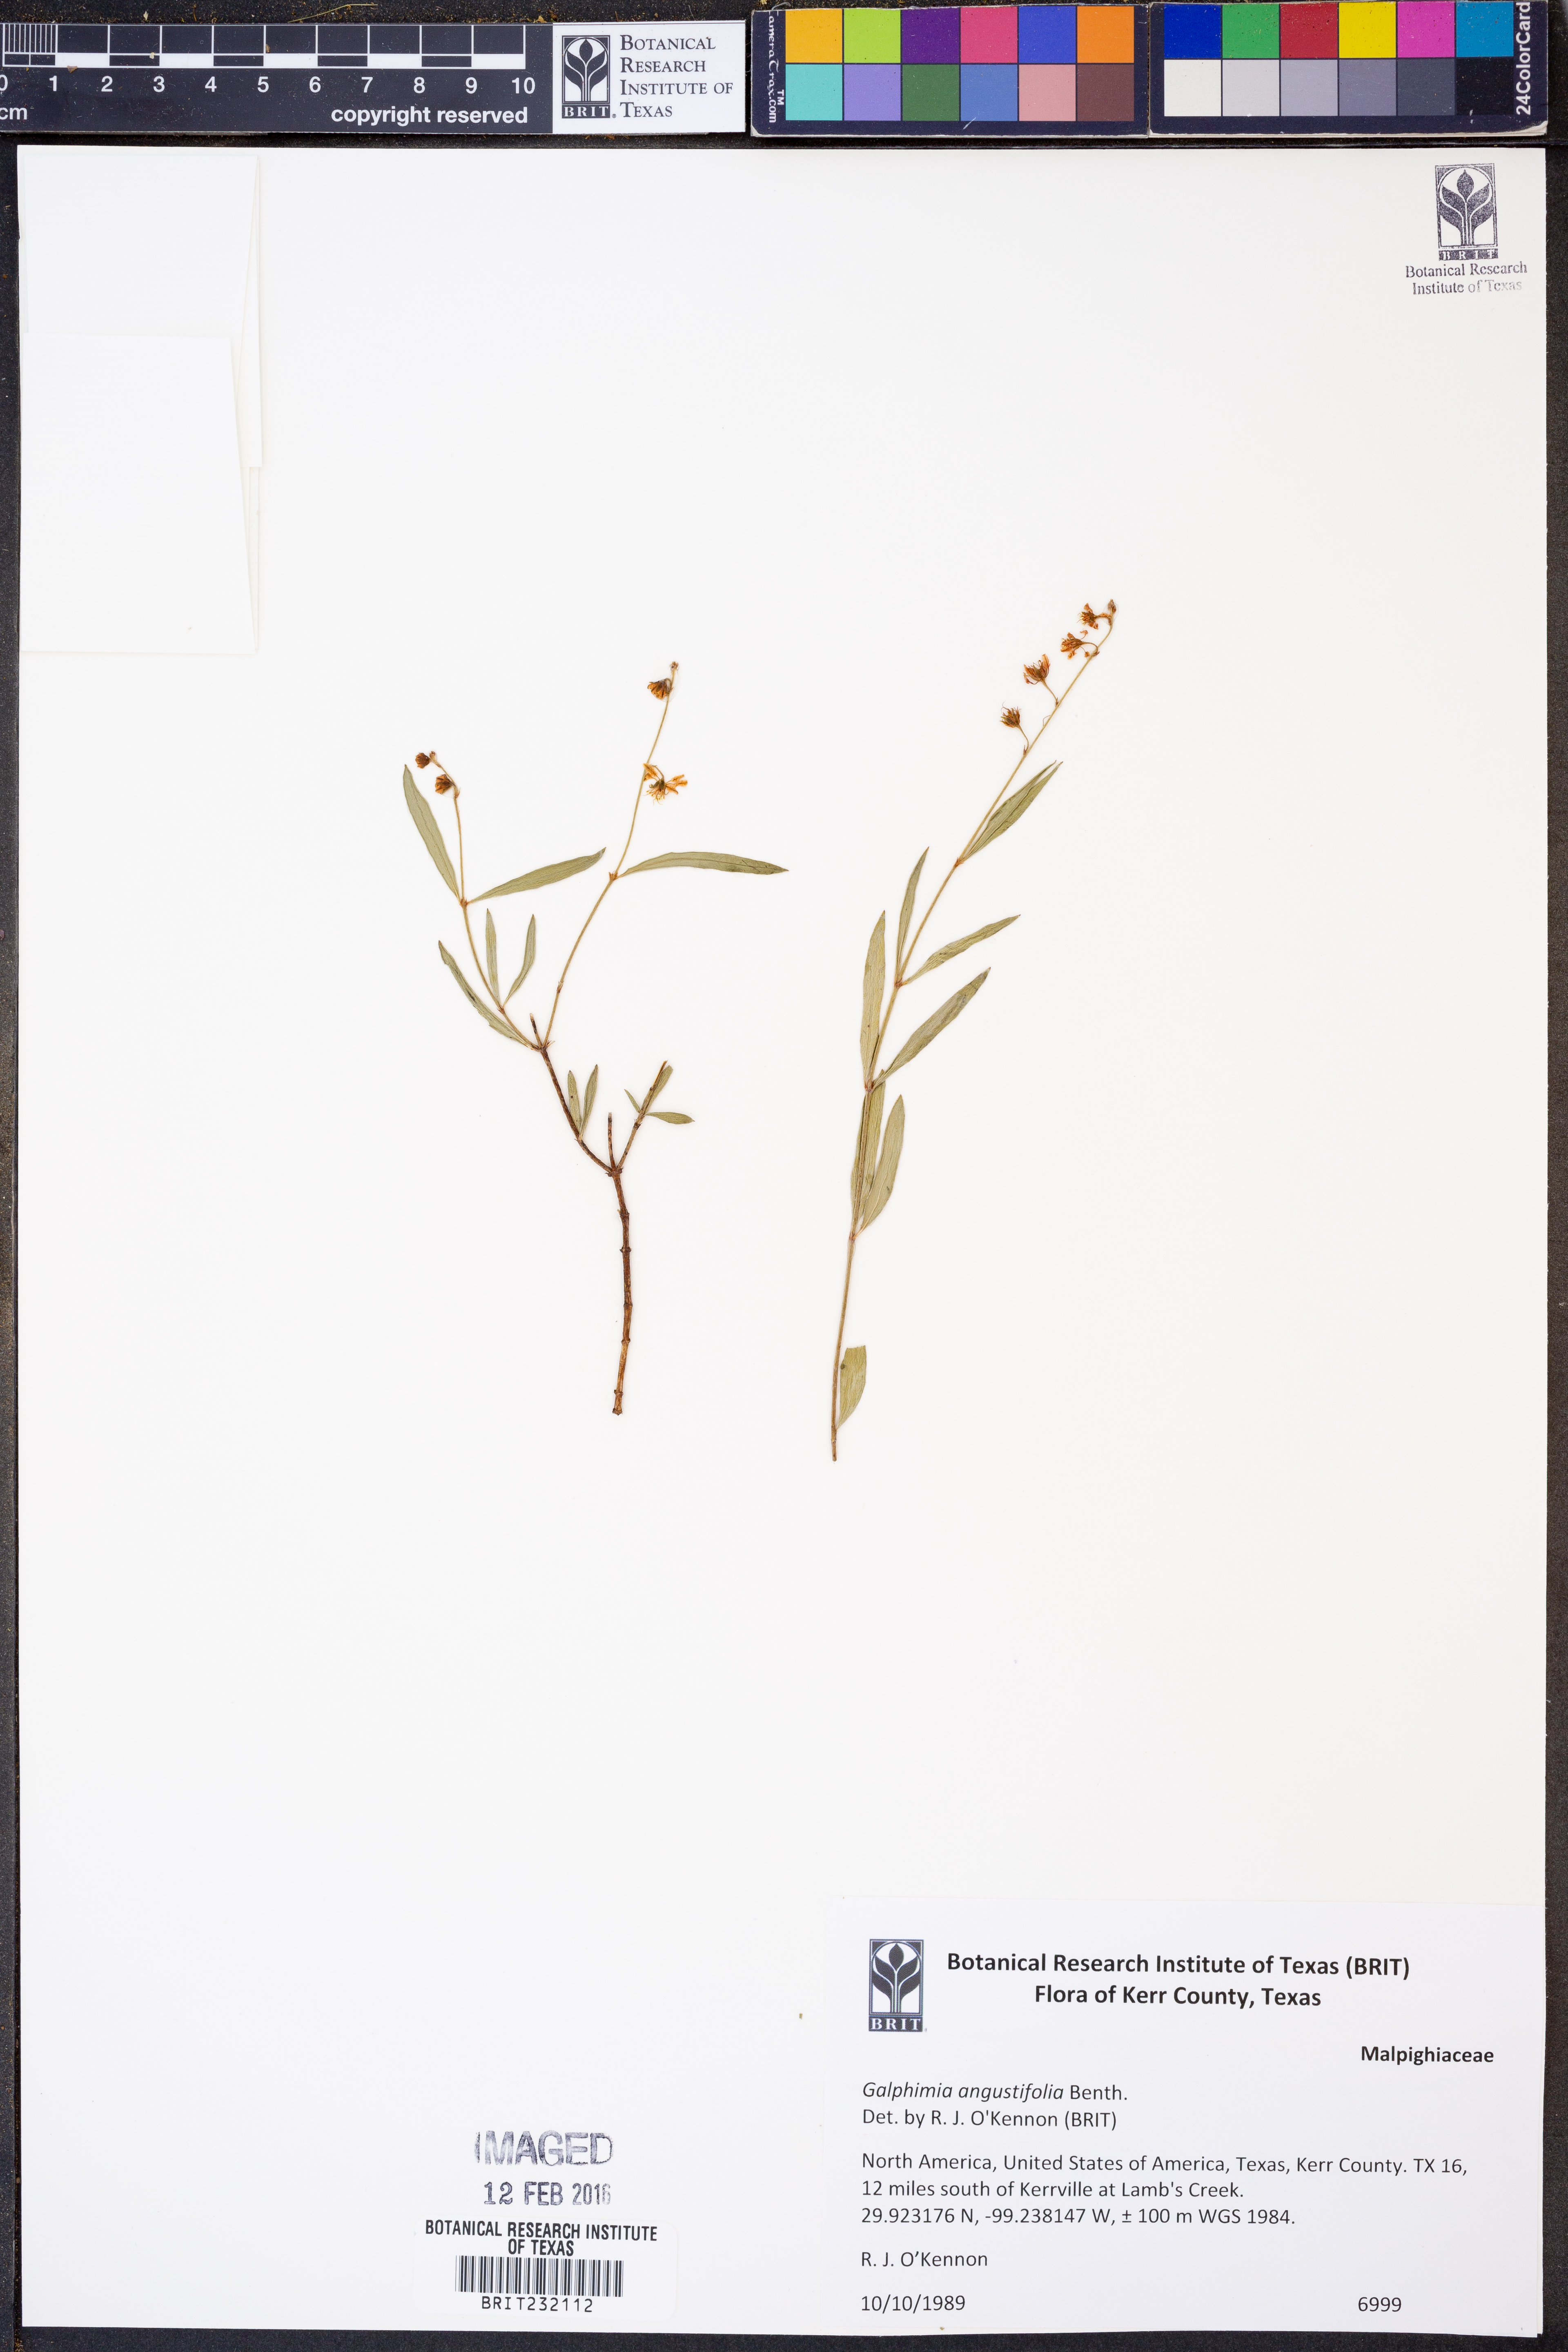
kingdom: Plantae
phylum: Tracheophyta
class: Magnoliopsida
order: Malpighiales
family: Malpighiaceae
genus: Galphimia
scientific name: Galphimia angustifolia
